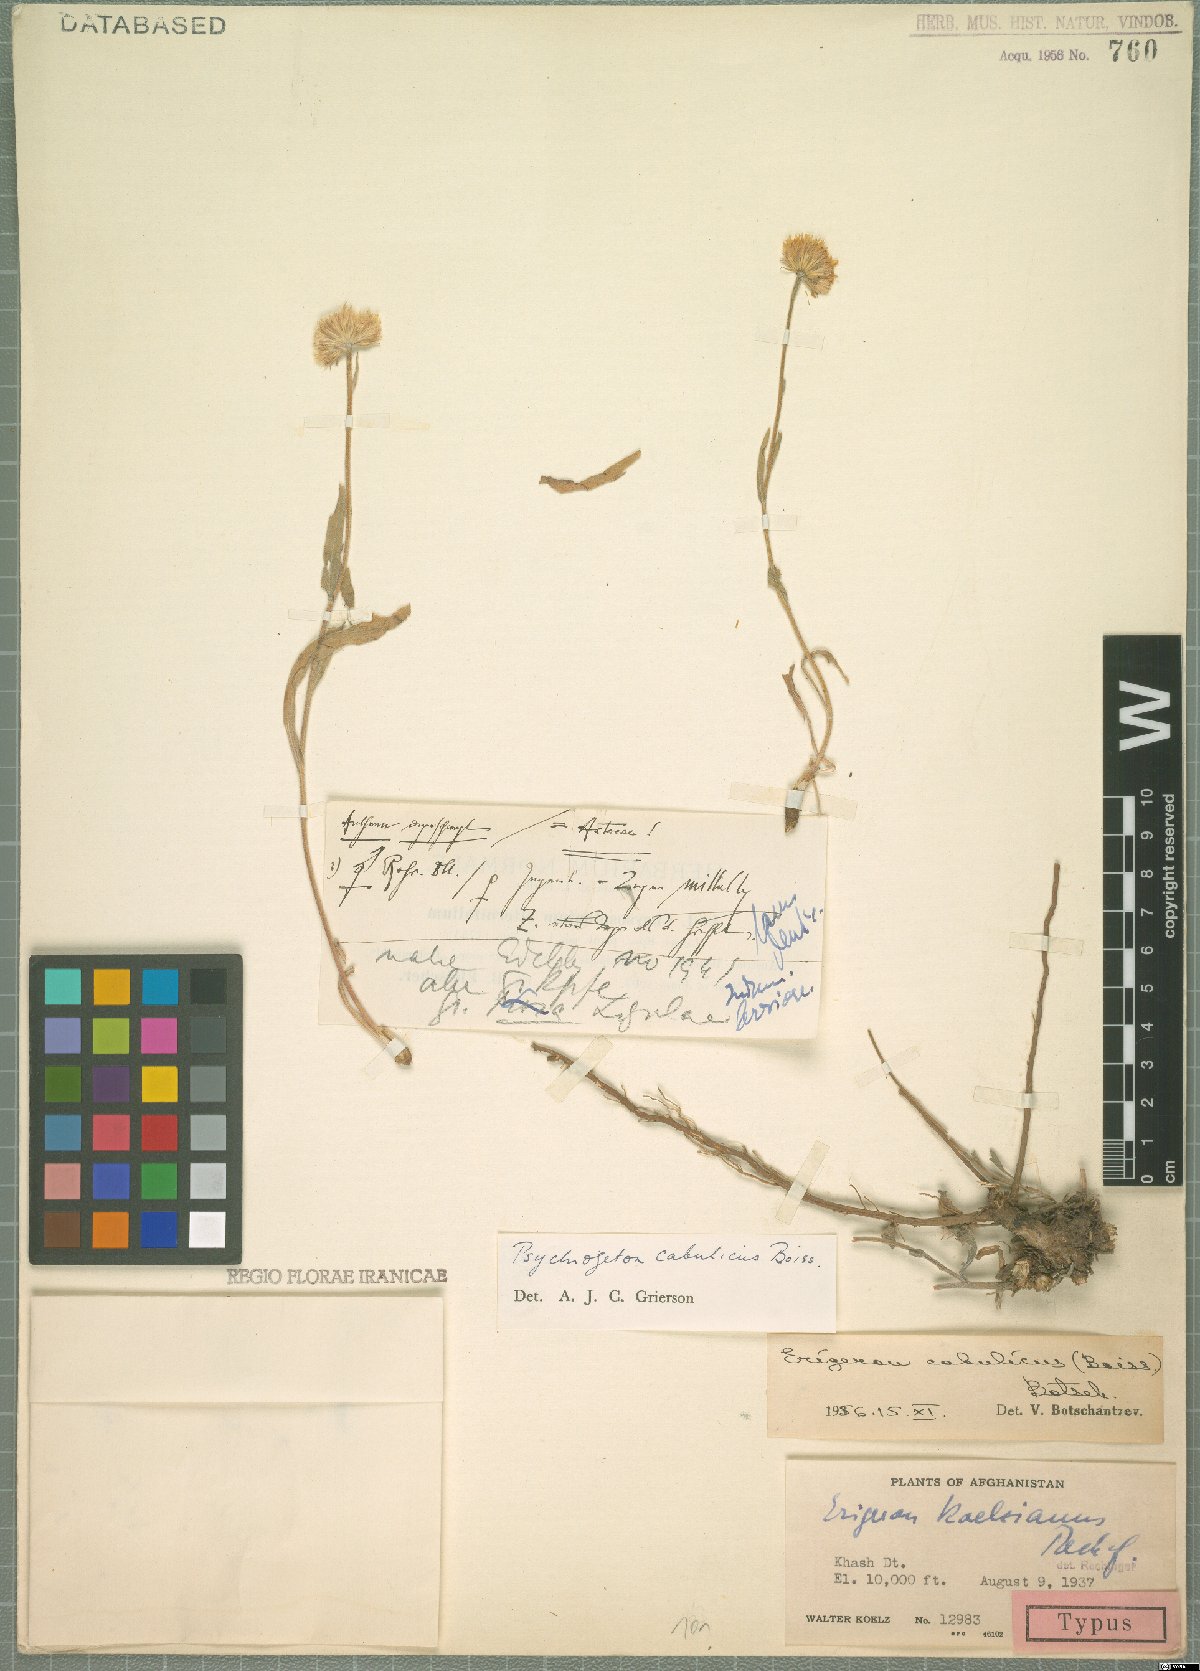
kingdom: Plantae
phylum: Tracheophyta
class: Magnoliopsida
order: Asterales
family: Asteraceae
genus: Psychrogeton
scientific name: Psychrogeton cabulicus
